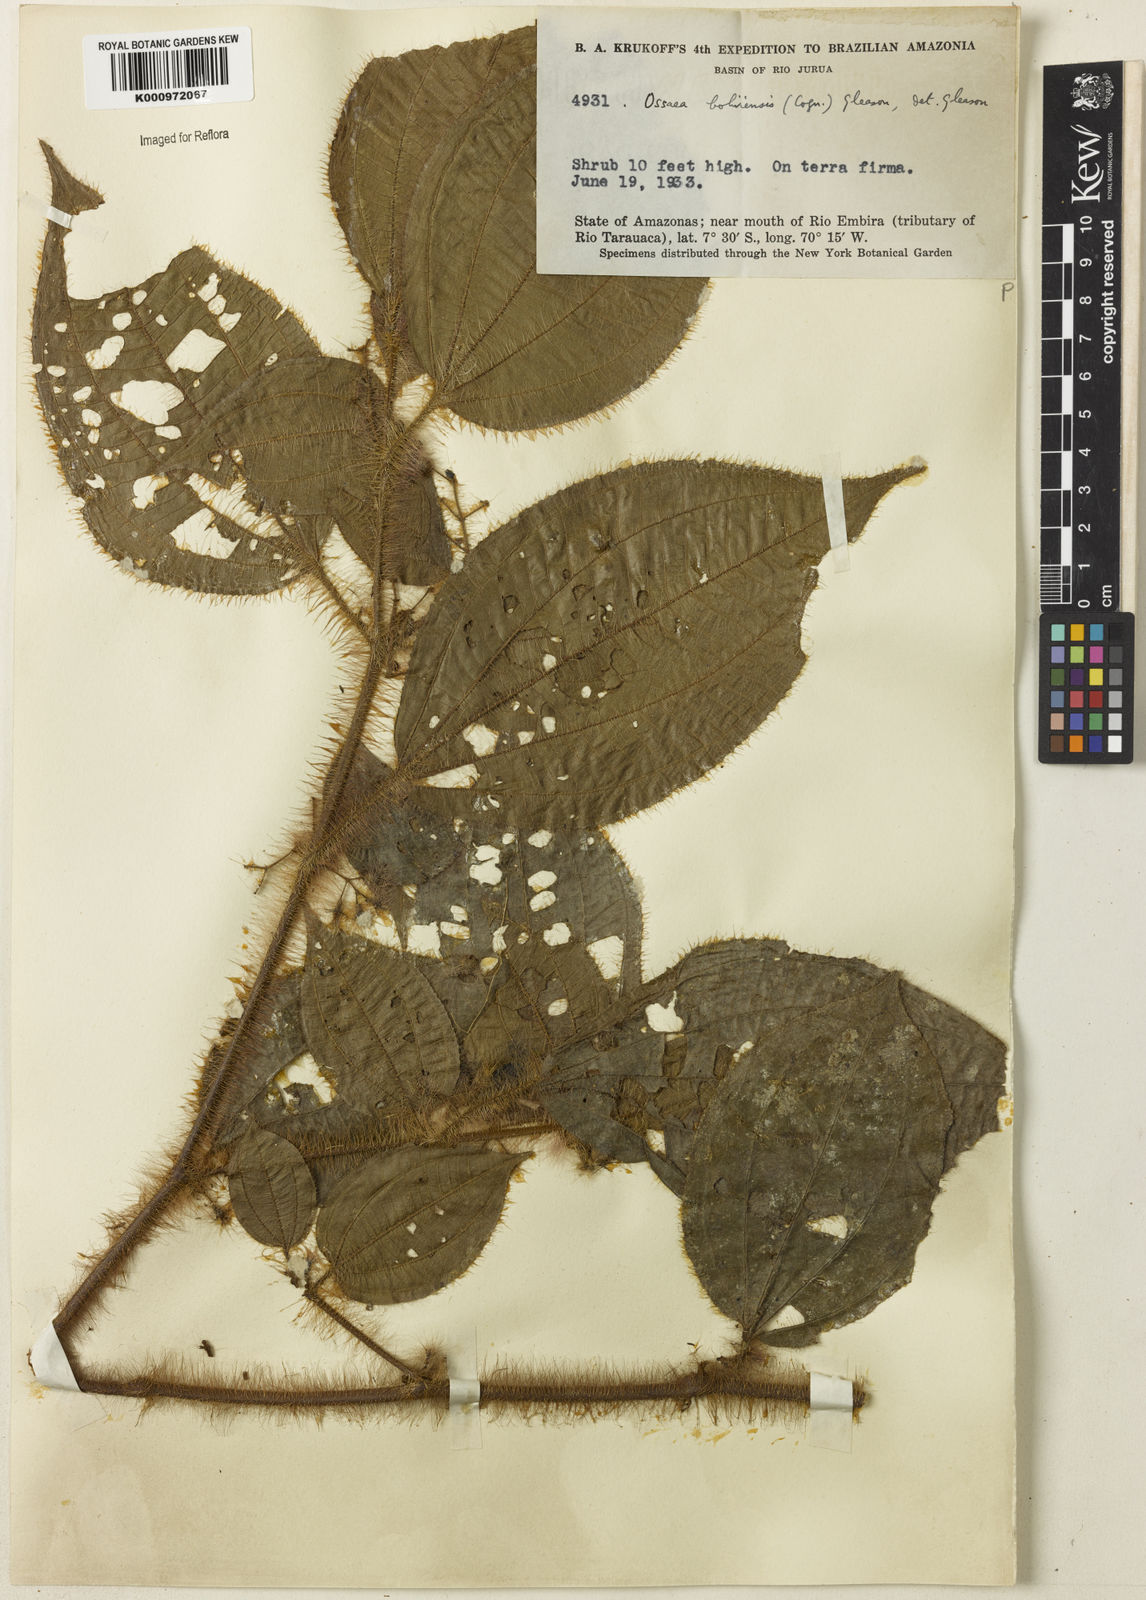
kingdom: Plantae
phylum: Tracheophyta
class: Magnoliopsida
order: Myrtales
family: Melastomataceae
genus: Miconia
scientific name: Miconia euphorbioides
